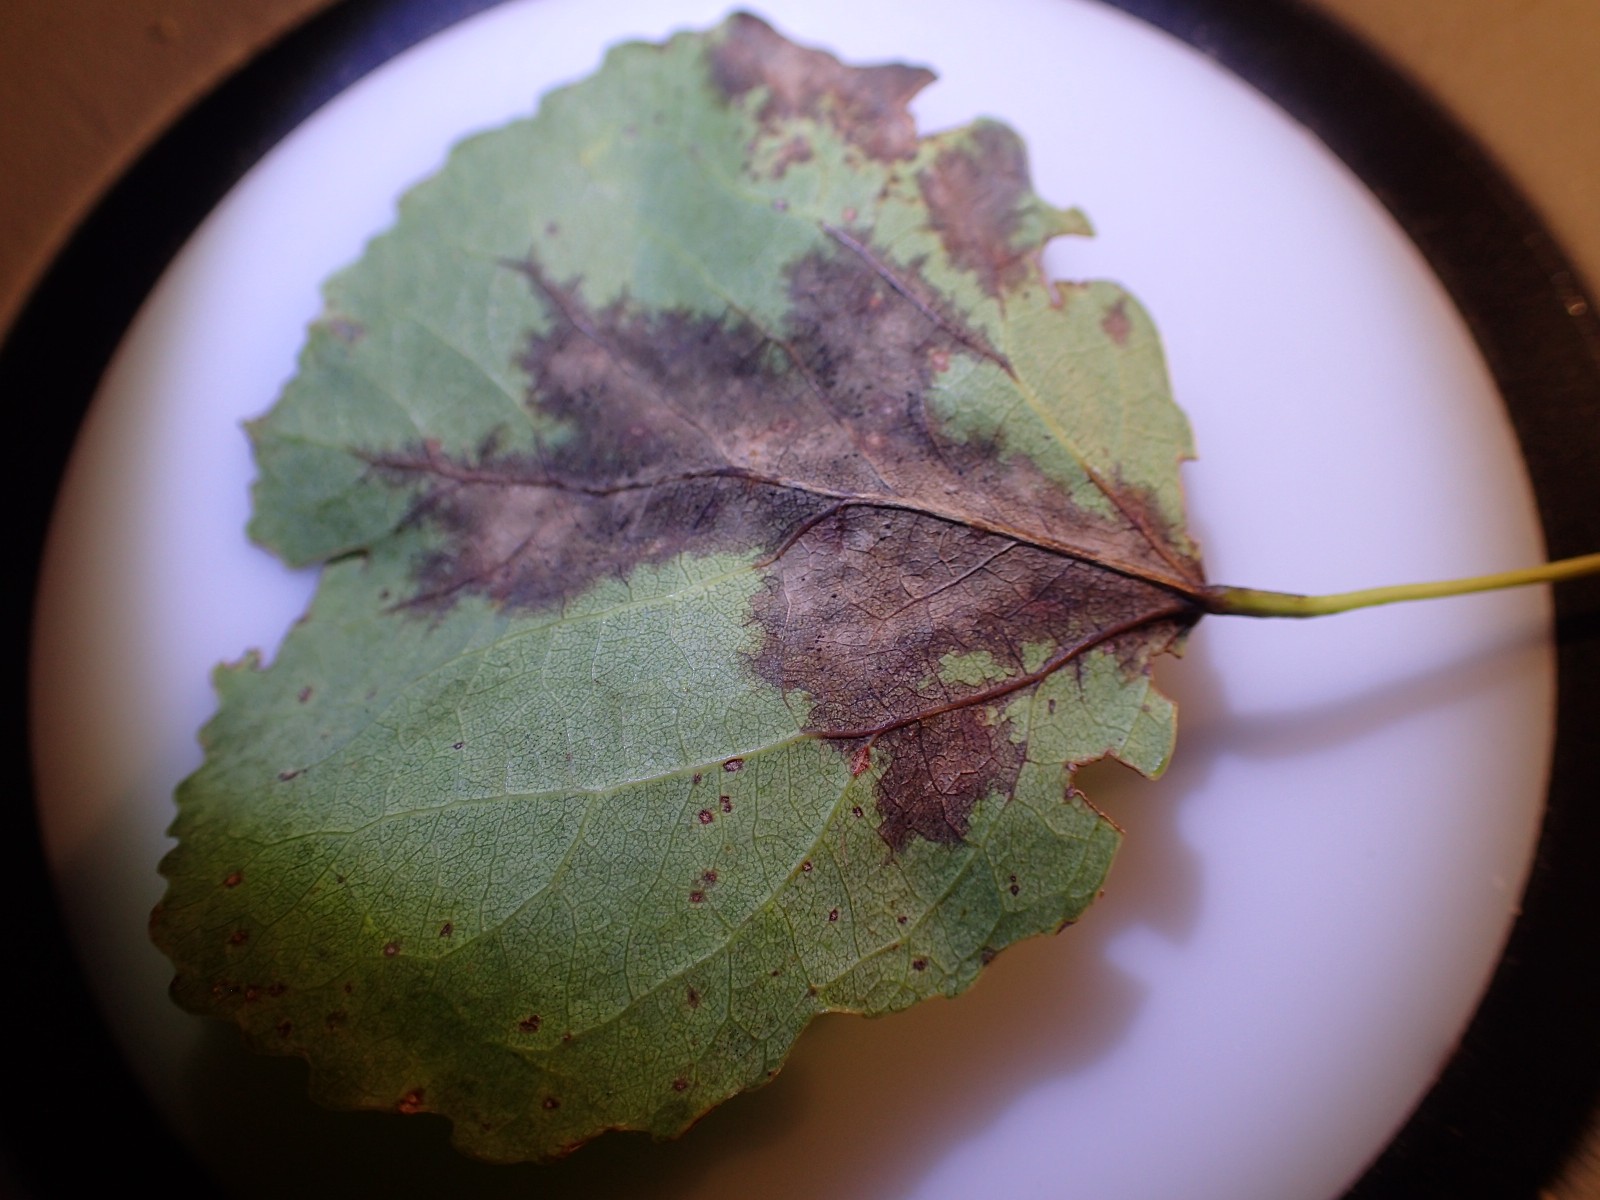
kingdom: Fungi
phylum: Ascomycota
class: Dothideomycetes
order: Botryosphaeriales
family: Phyllostictaceae
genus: Phyllosticta
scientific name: Phyllosticta
